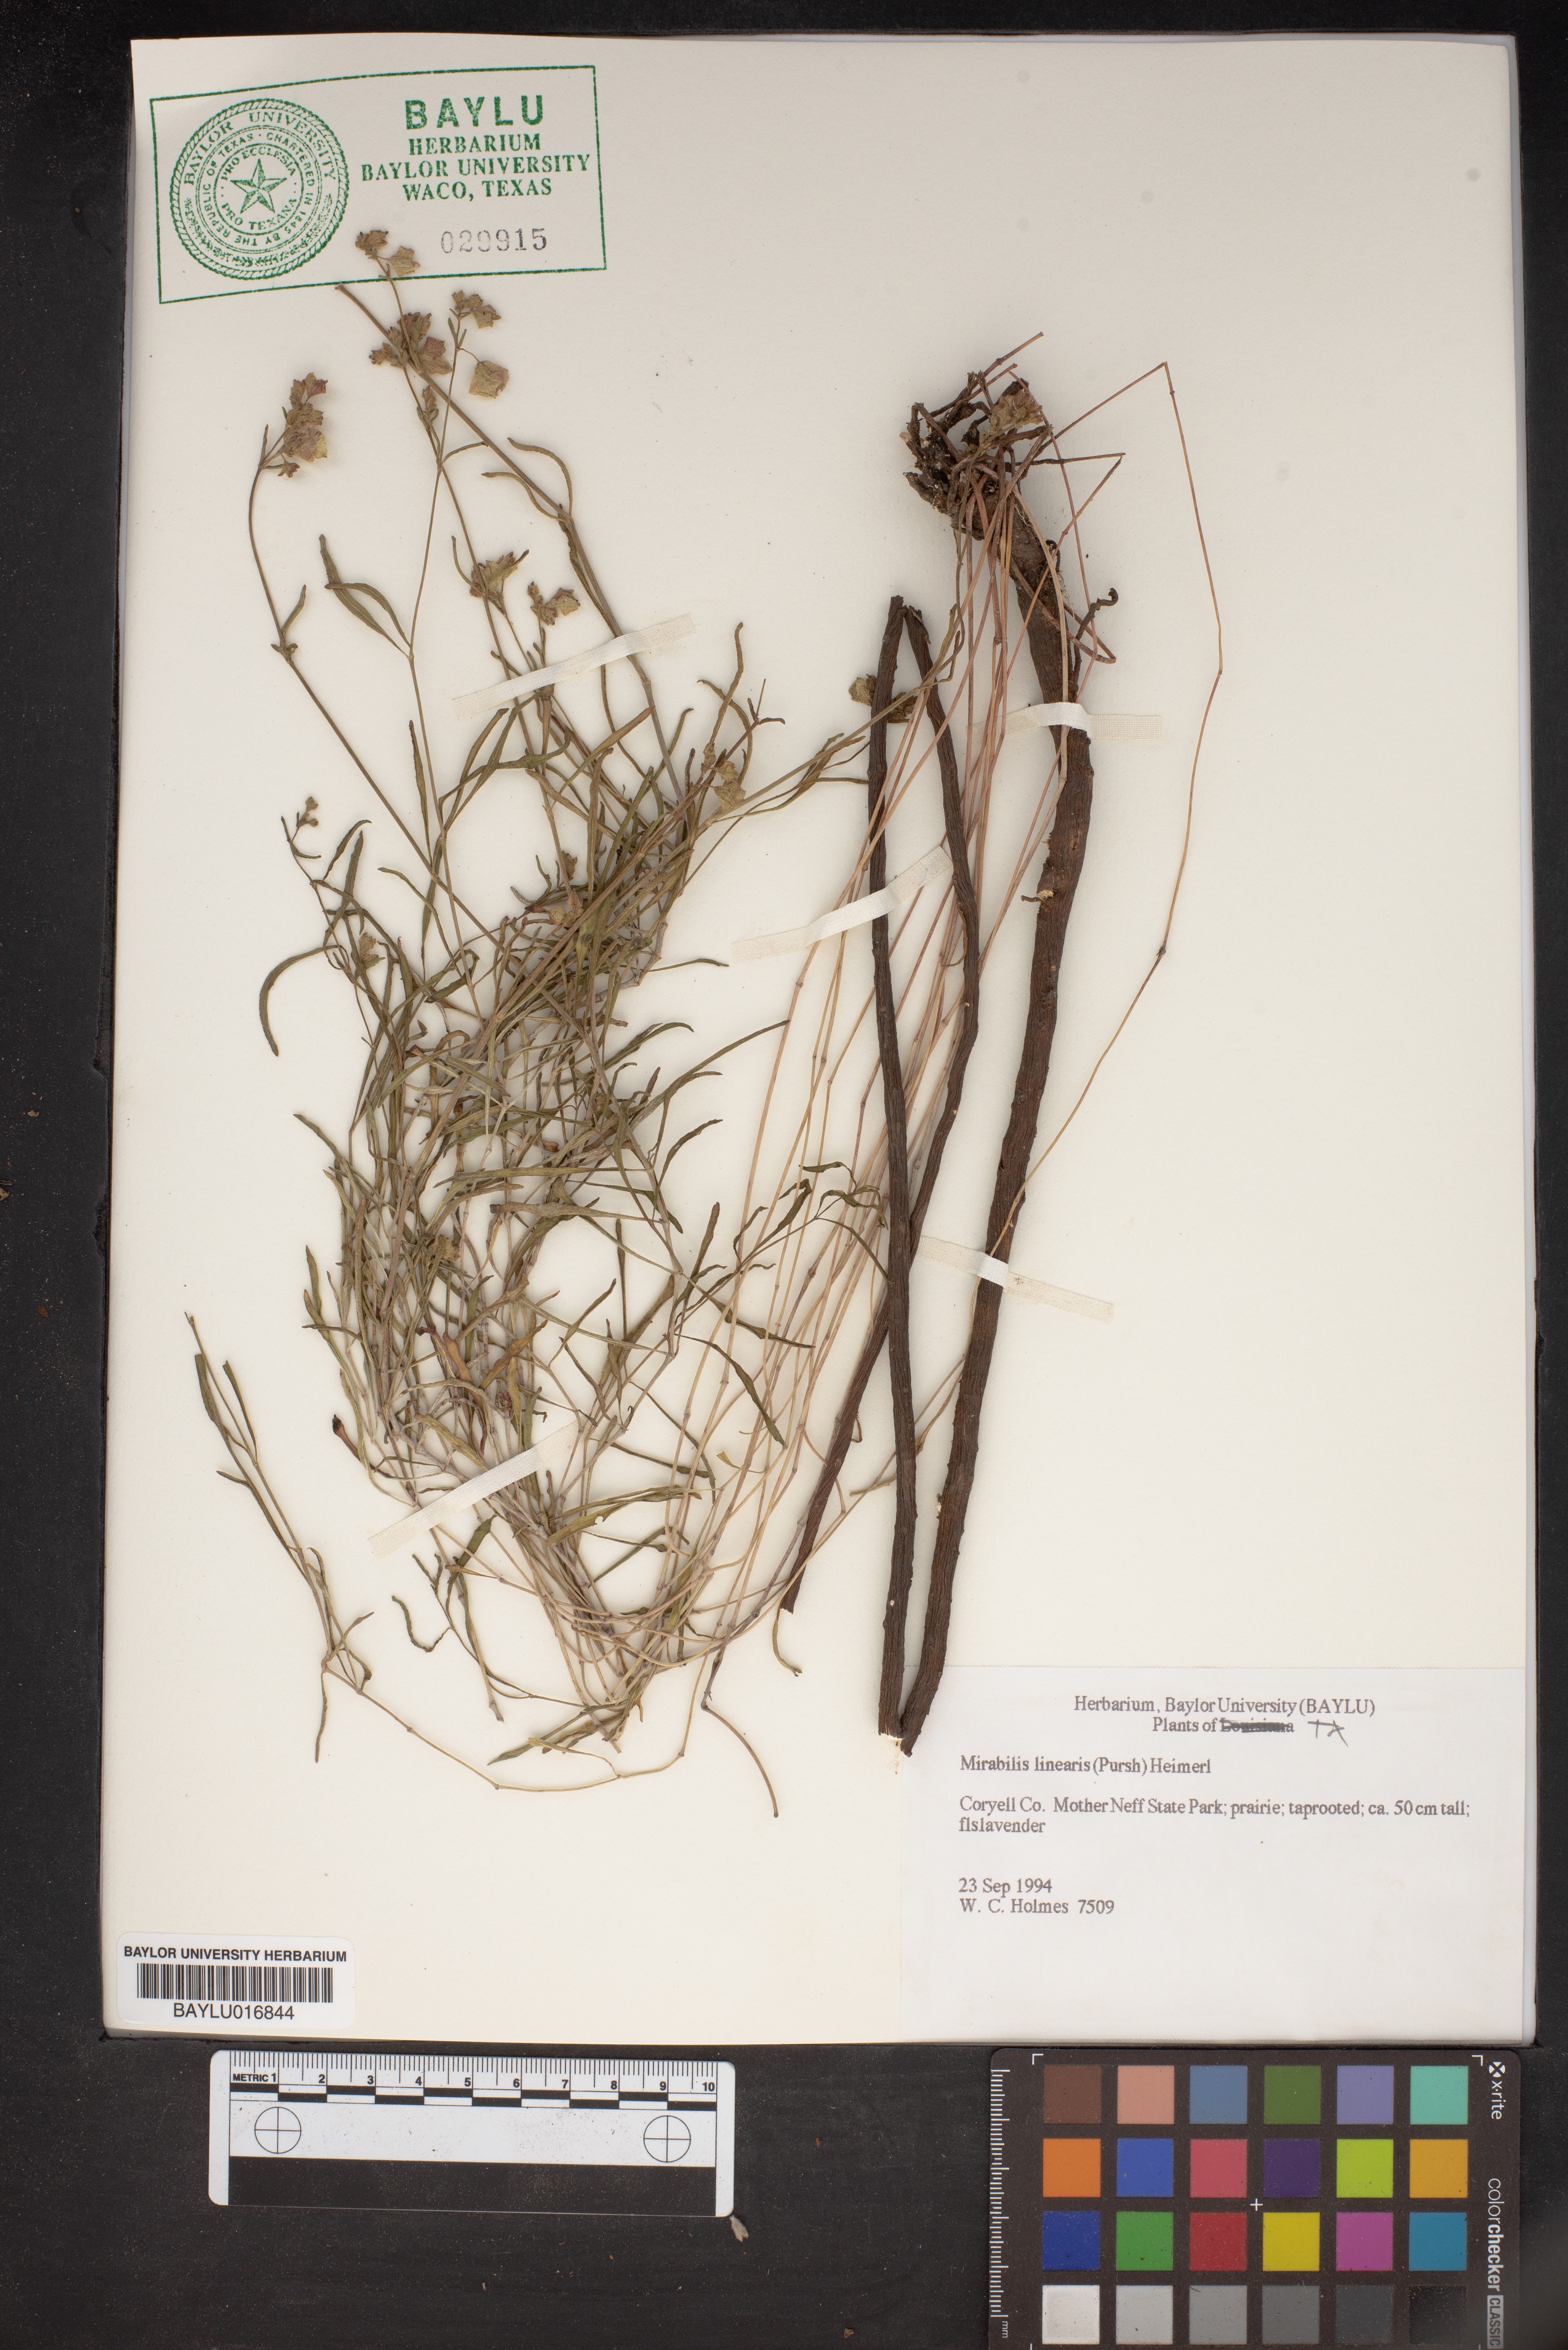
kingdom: Plantae
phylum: Tracheophyta
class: Magnoliopsida
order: Caryophyllales
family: Nyctaginaceae
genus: Mirabilis
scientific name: Mirabilis linearis
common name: Linear-leaved four-o'clock
